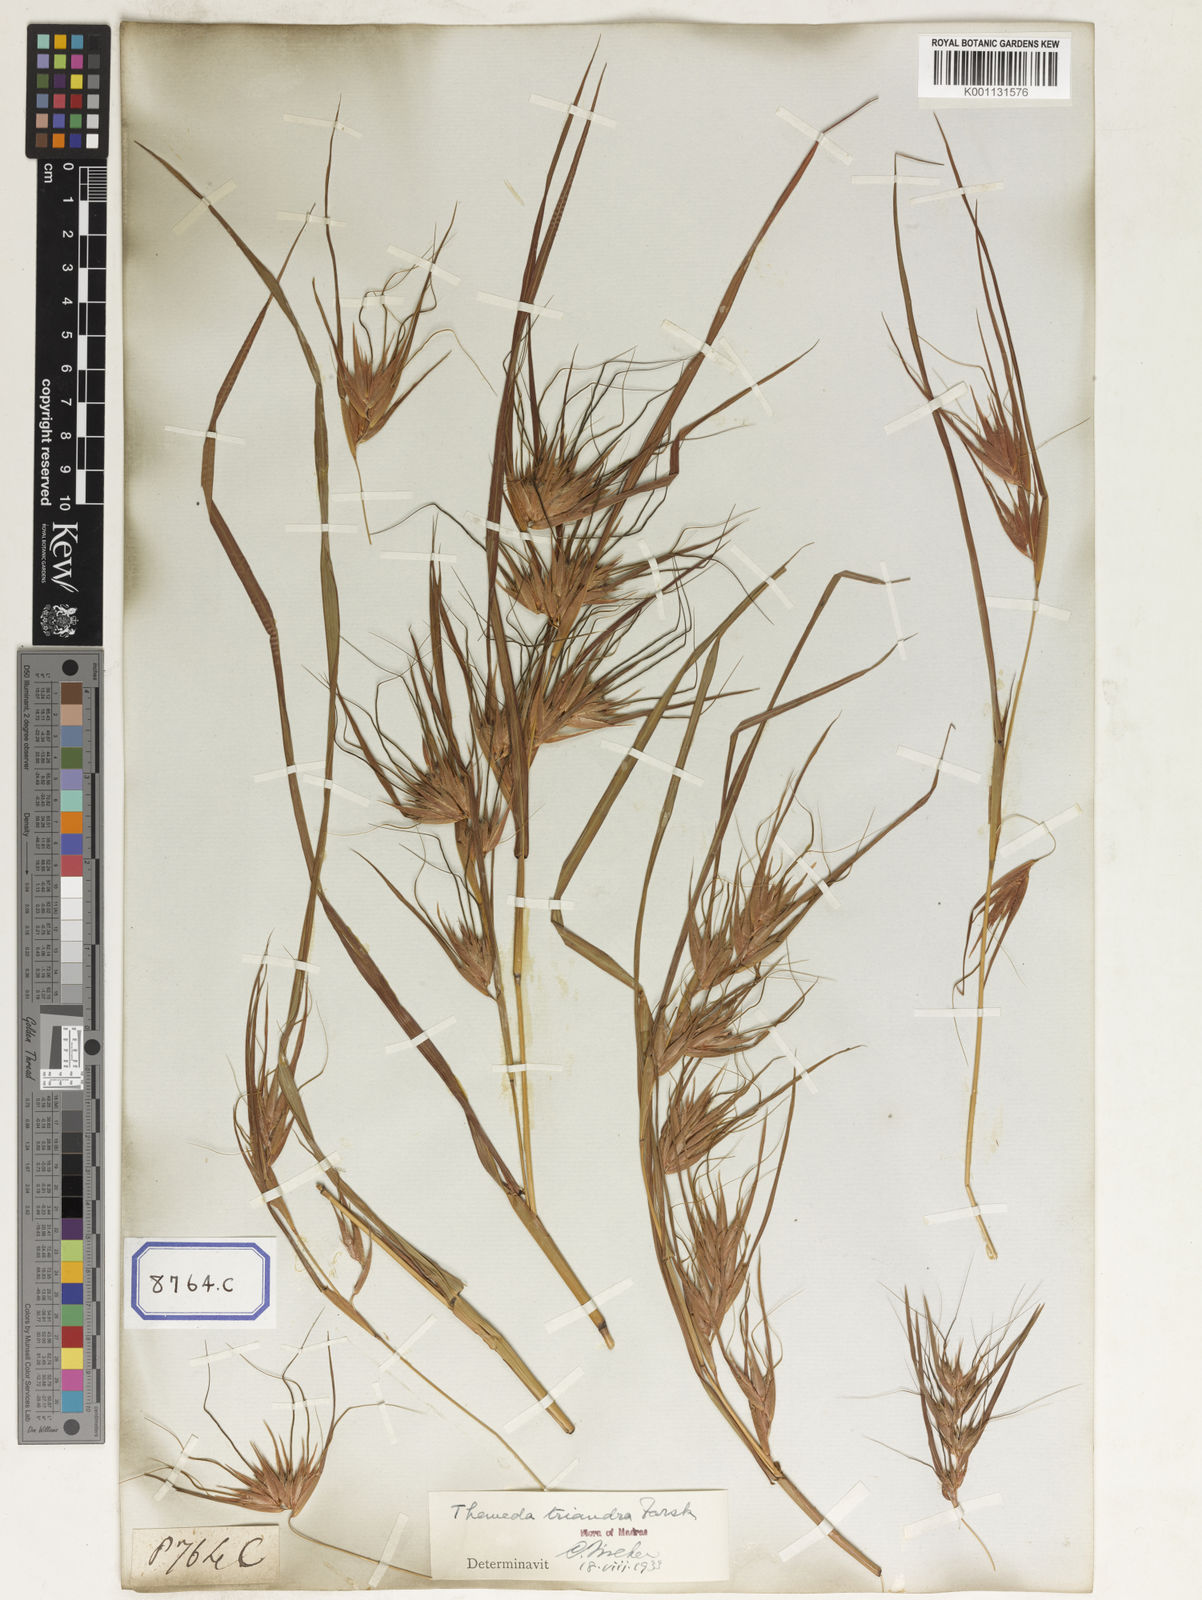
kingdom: Plantae
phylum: Tracheophyta
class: Liliopsida
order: Poales
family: Poaceae
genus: Themeda
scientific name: Themeda
